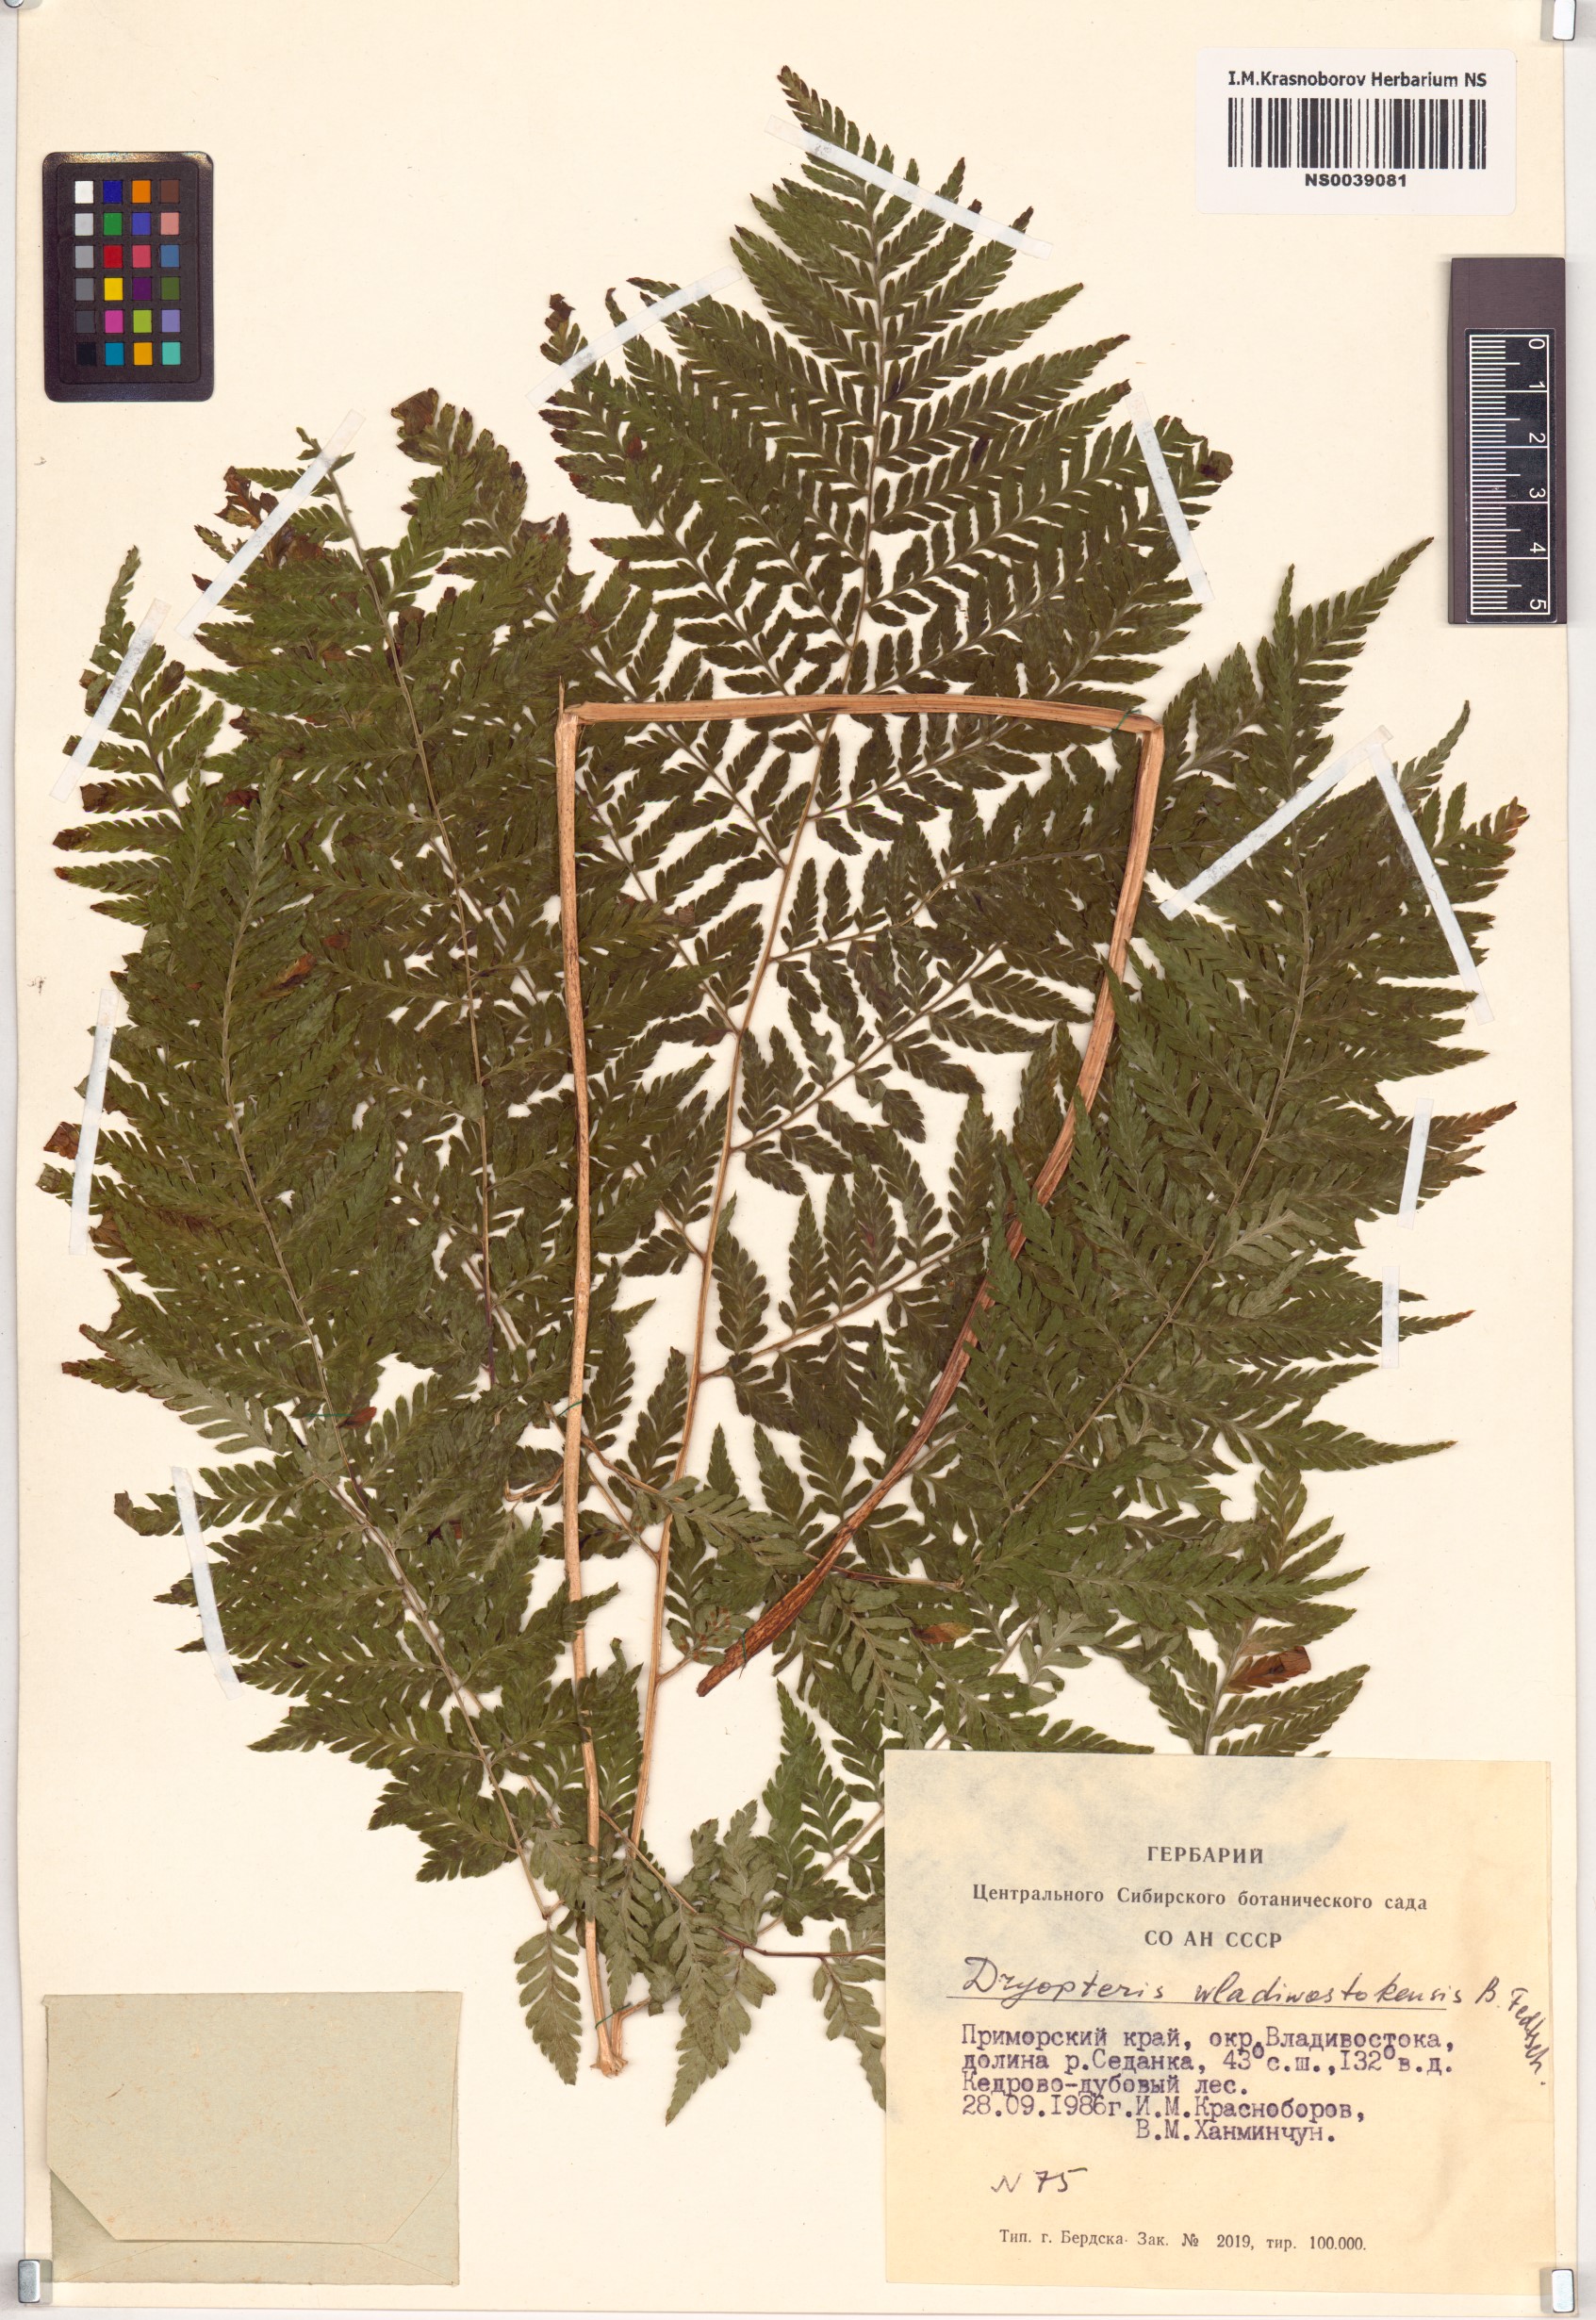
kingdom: Plantae
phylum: Tracheophyta
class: Polypodiopsida
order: Polypodiales
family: Dryopteridaceae
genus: Dryopteris
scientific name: Dryopteris laeta
